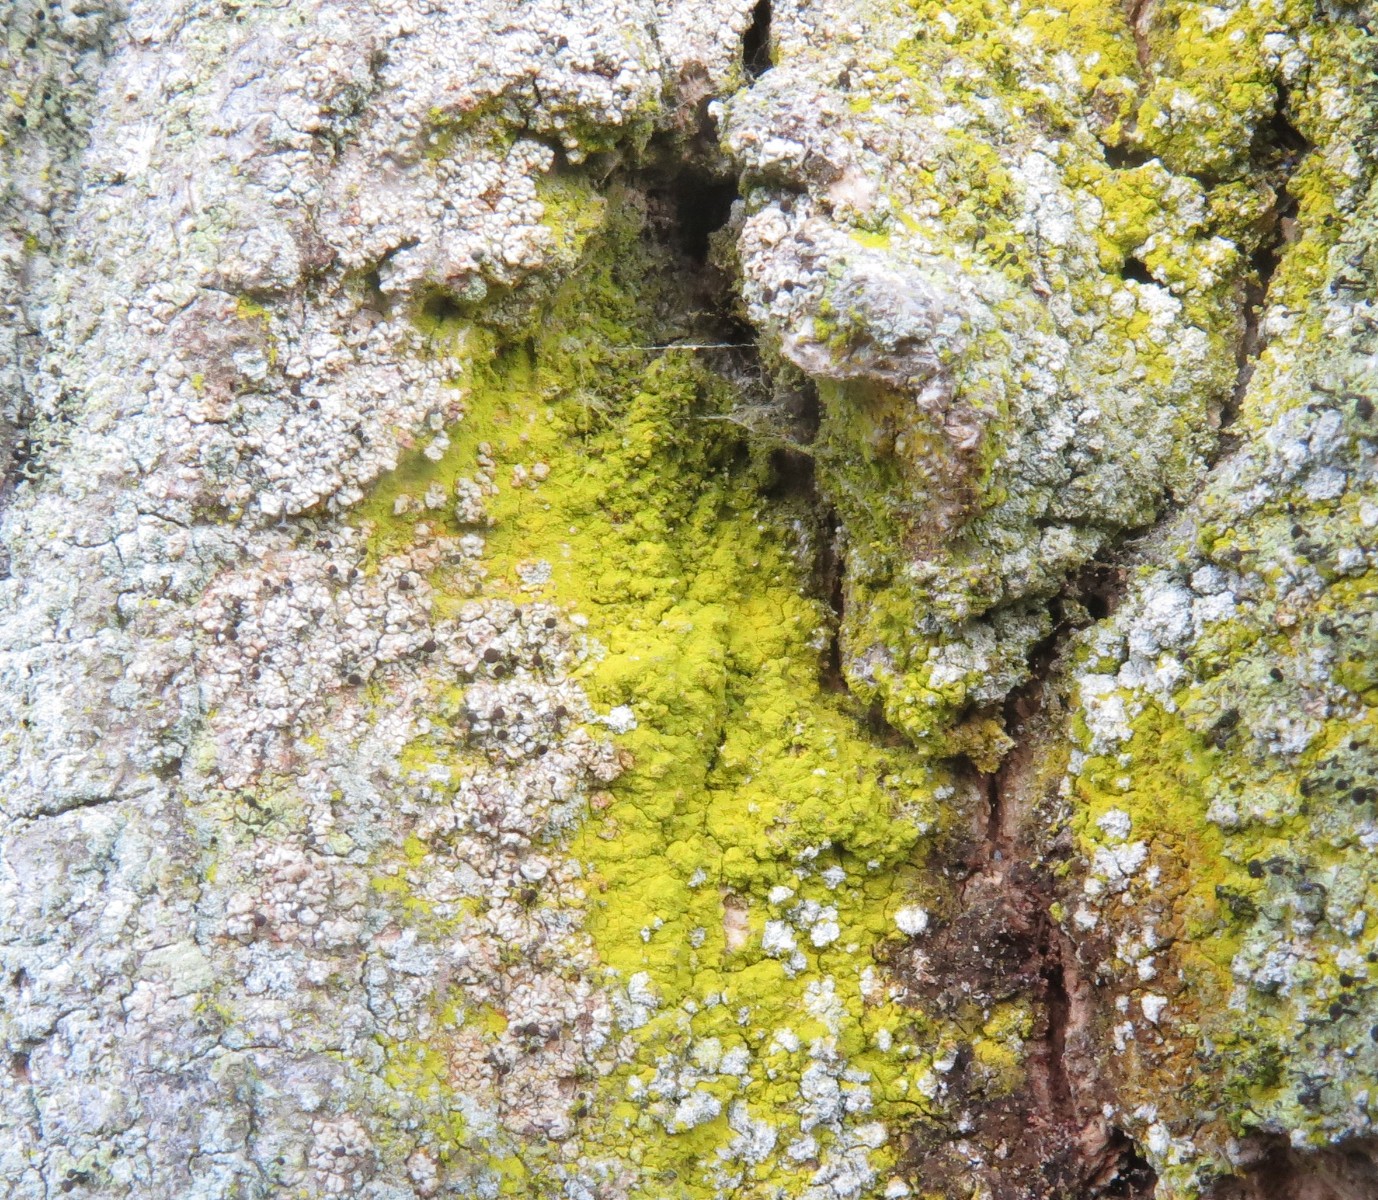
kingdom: Fungi
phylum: Ascomycota
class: Arthoniomycetes
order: Arthoniales
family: Chrysotrichaceae
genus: Chrysothrix
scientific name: Chrysothrix candelaris
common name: gul støvlav
